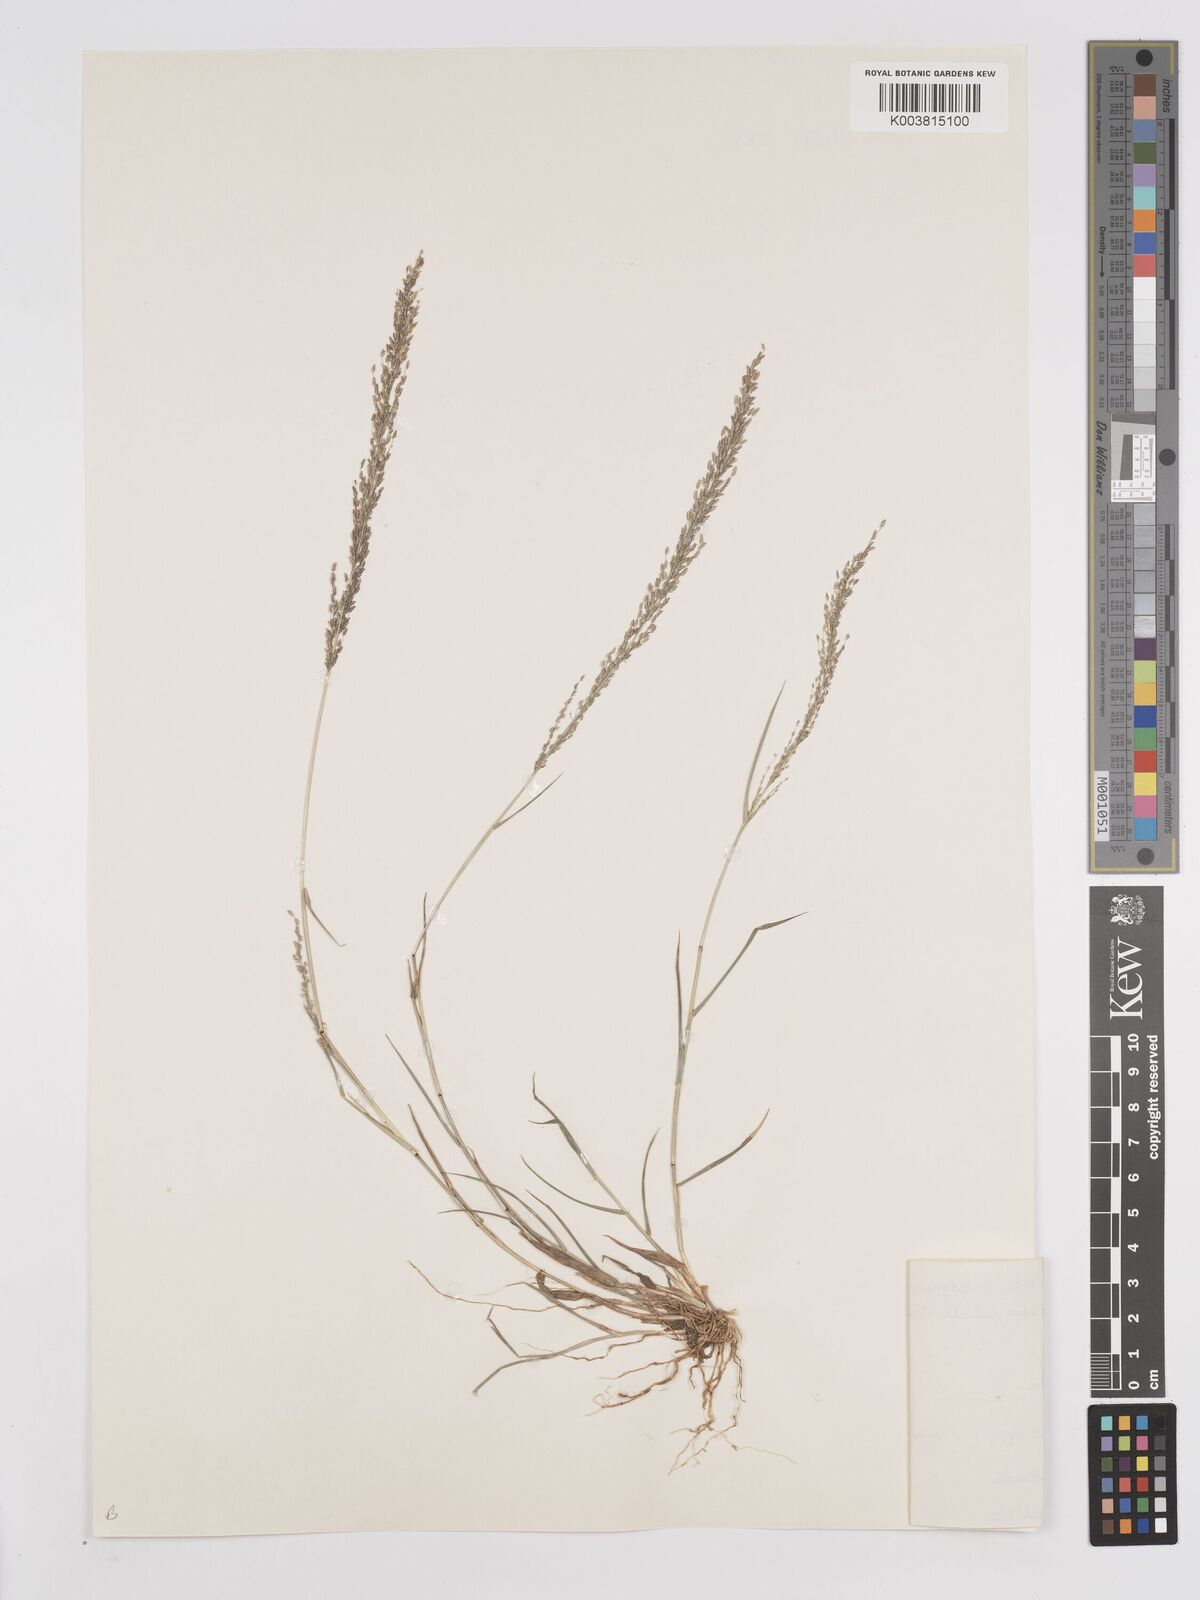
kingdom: Plantae
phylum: Tracheophyta
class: Liliopsida
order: Poales
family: Poaceae
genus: Eragrostis
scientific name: Eragrostis tenella
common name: Japanese lovegrass
